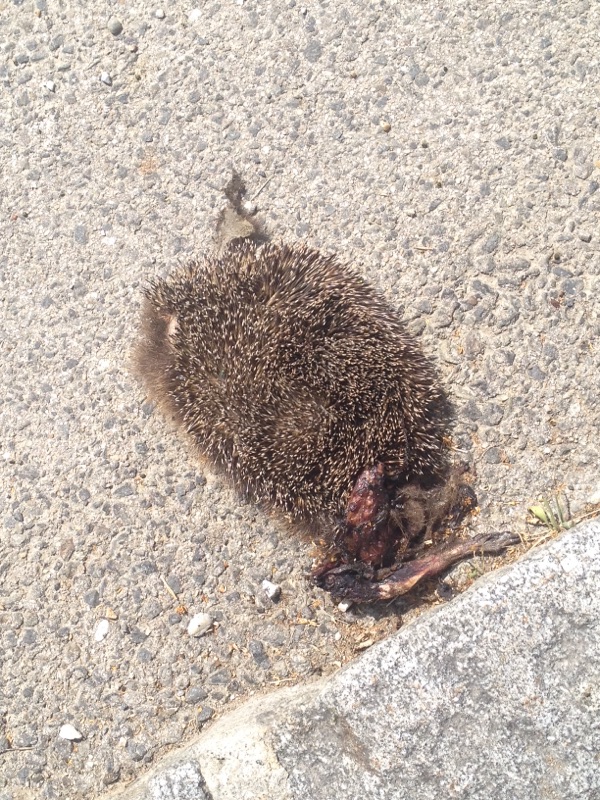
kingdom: Animalia
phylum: Chordata
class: Mammalia
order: Erinaceomorpha
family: Erinaceidae
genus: Erinaceus
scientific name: Erinaceus
